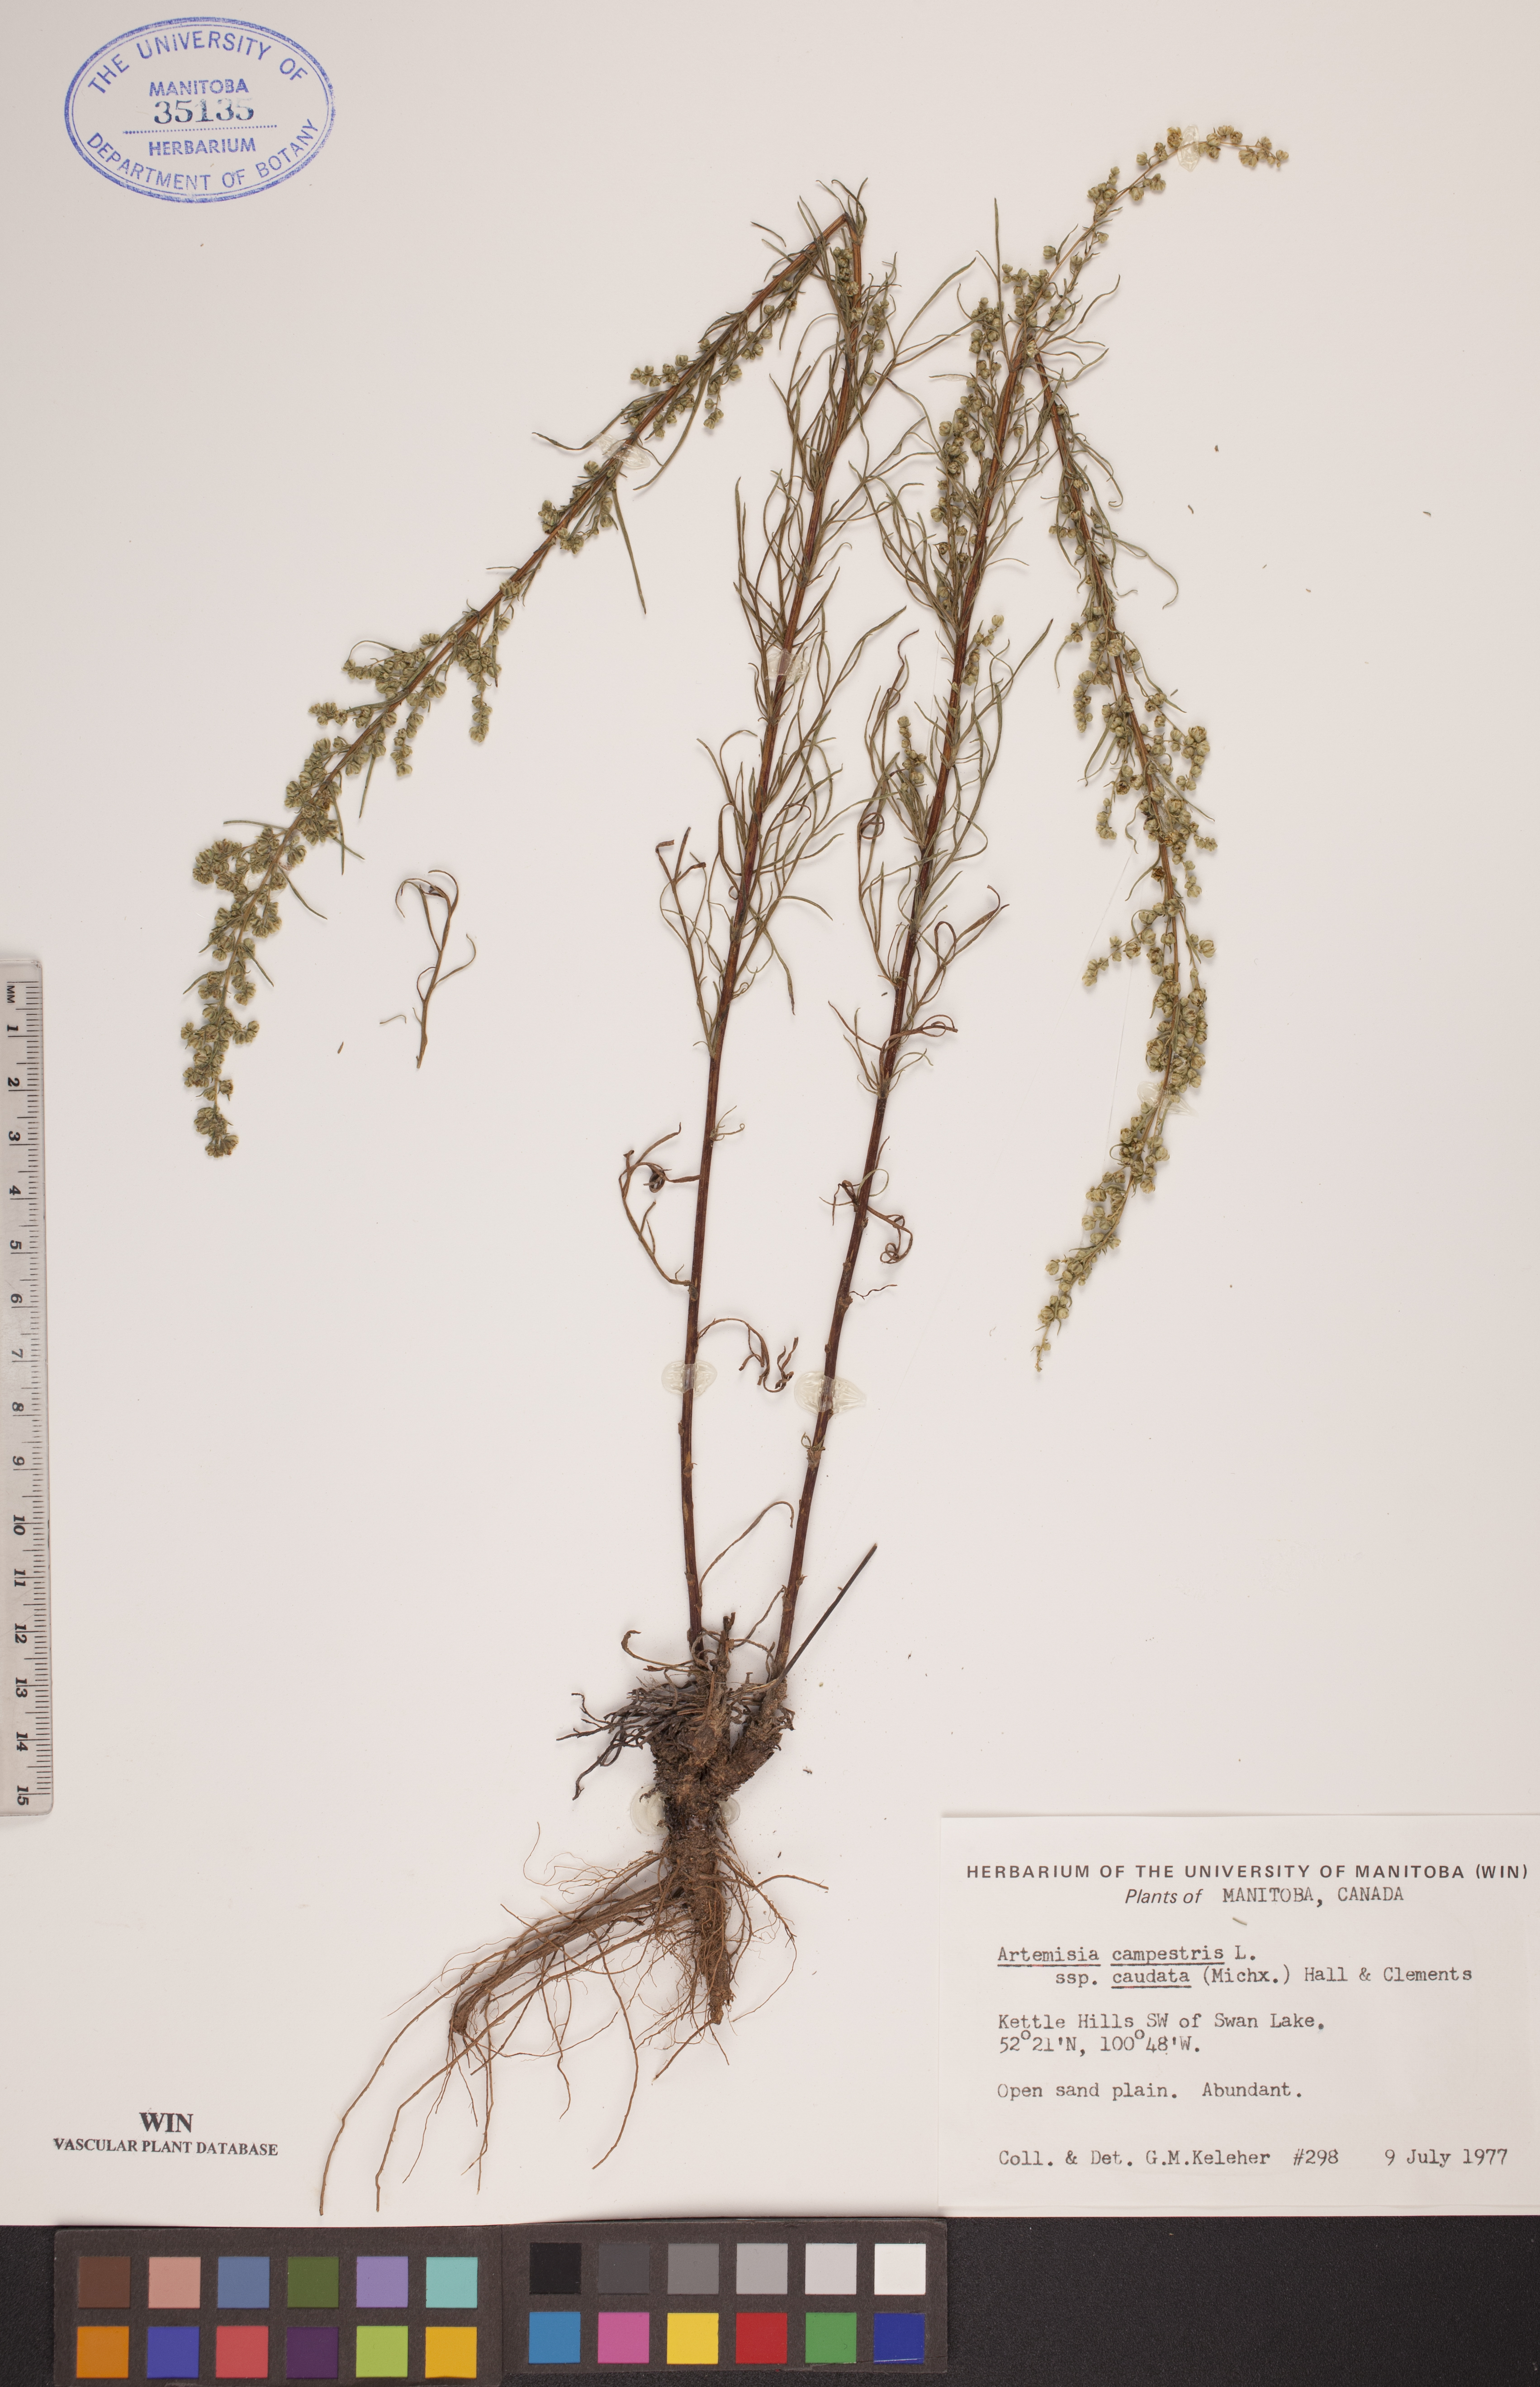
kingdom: Plantae
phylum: Tracheophyta
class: Magnoliopsida
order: Asterales
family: Asteraceae
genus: Artemisia
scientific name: Artemisia campestris
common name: Field wormwood
